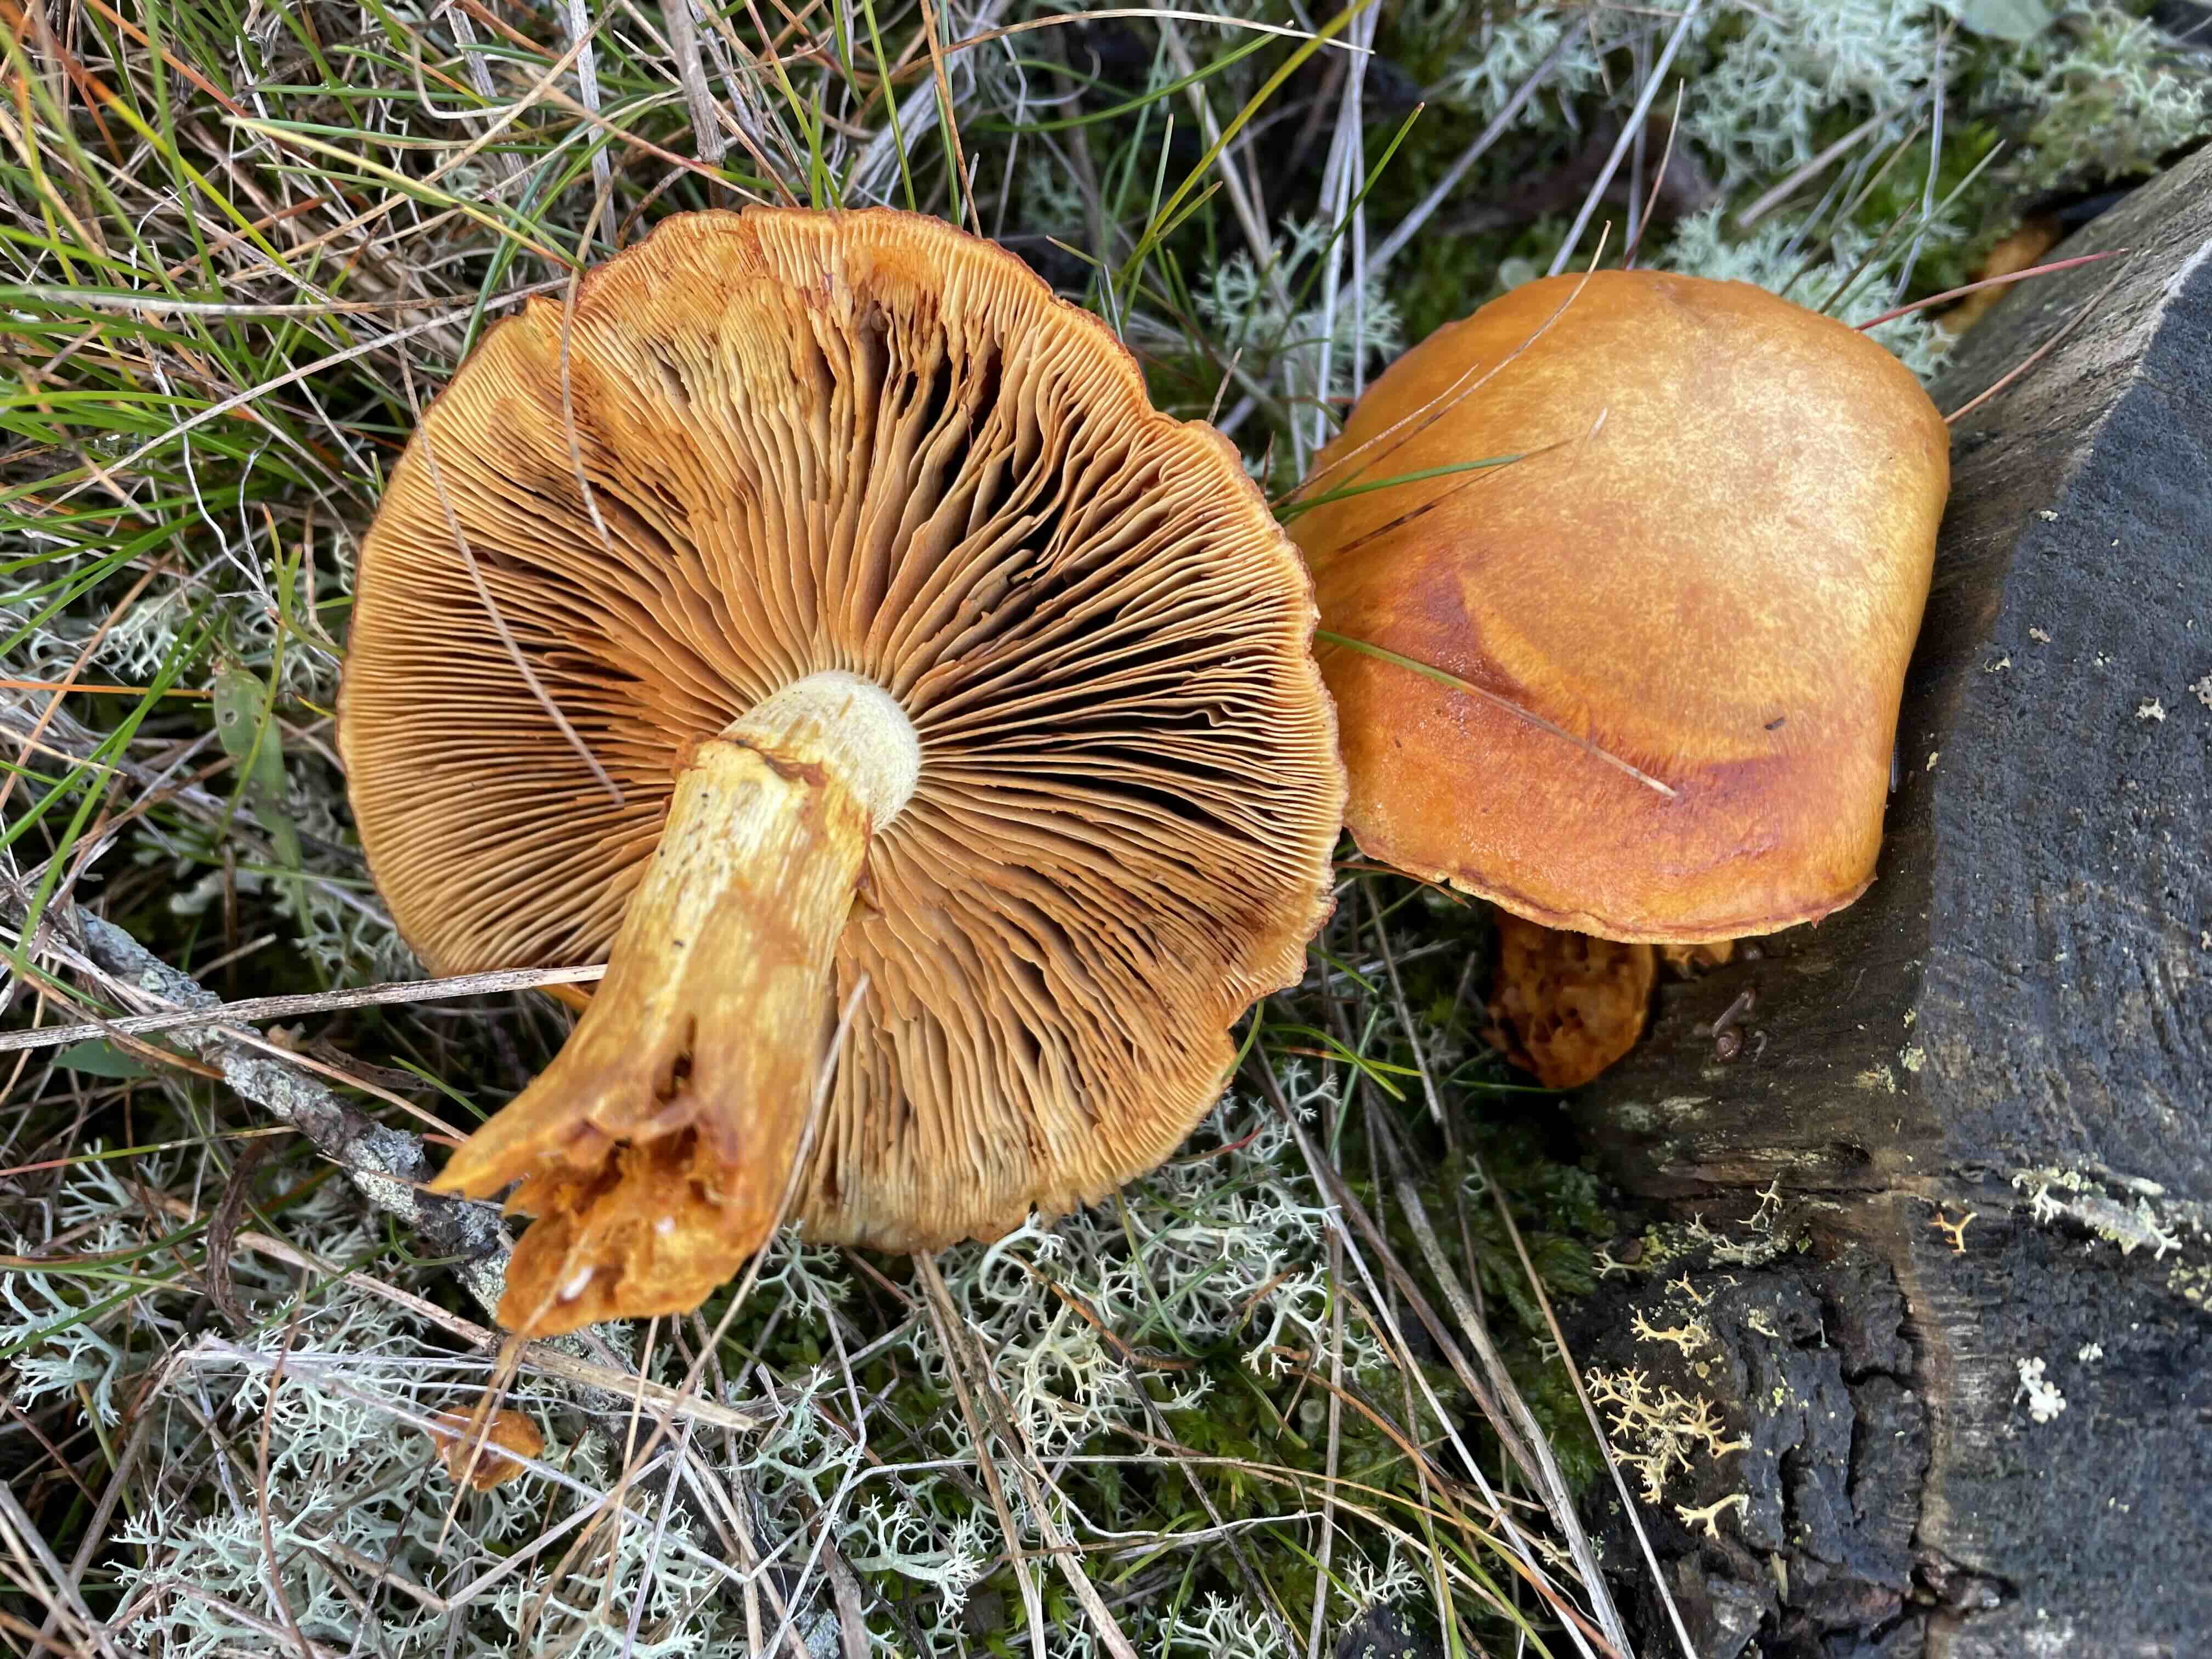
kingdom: Fungi
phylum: Basidiomycota
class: Agaricomycetes
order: Agaricales
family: Hymenogastraceae
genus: Gymnopilus
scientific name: Gymnopilus spectabilis
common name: fibret flammehat
